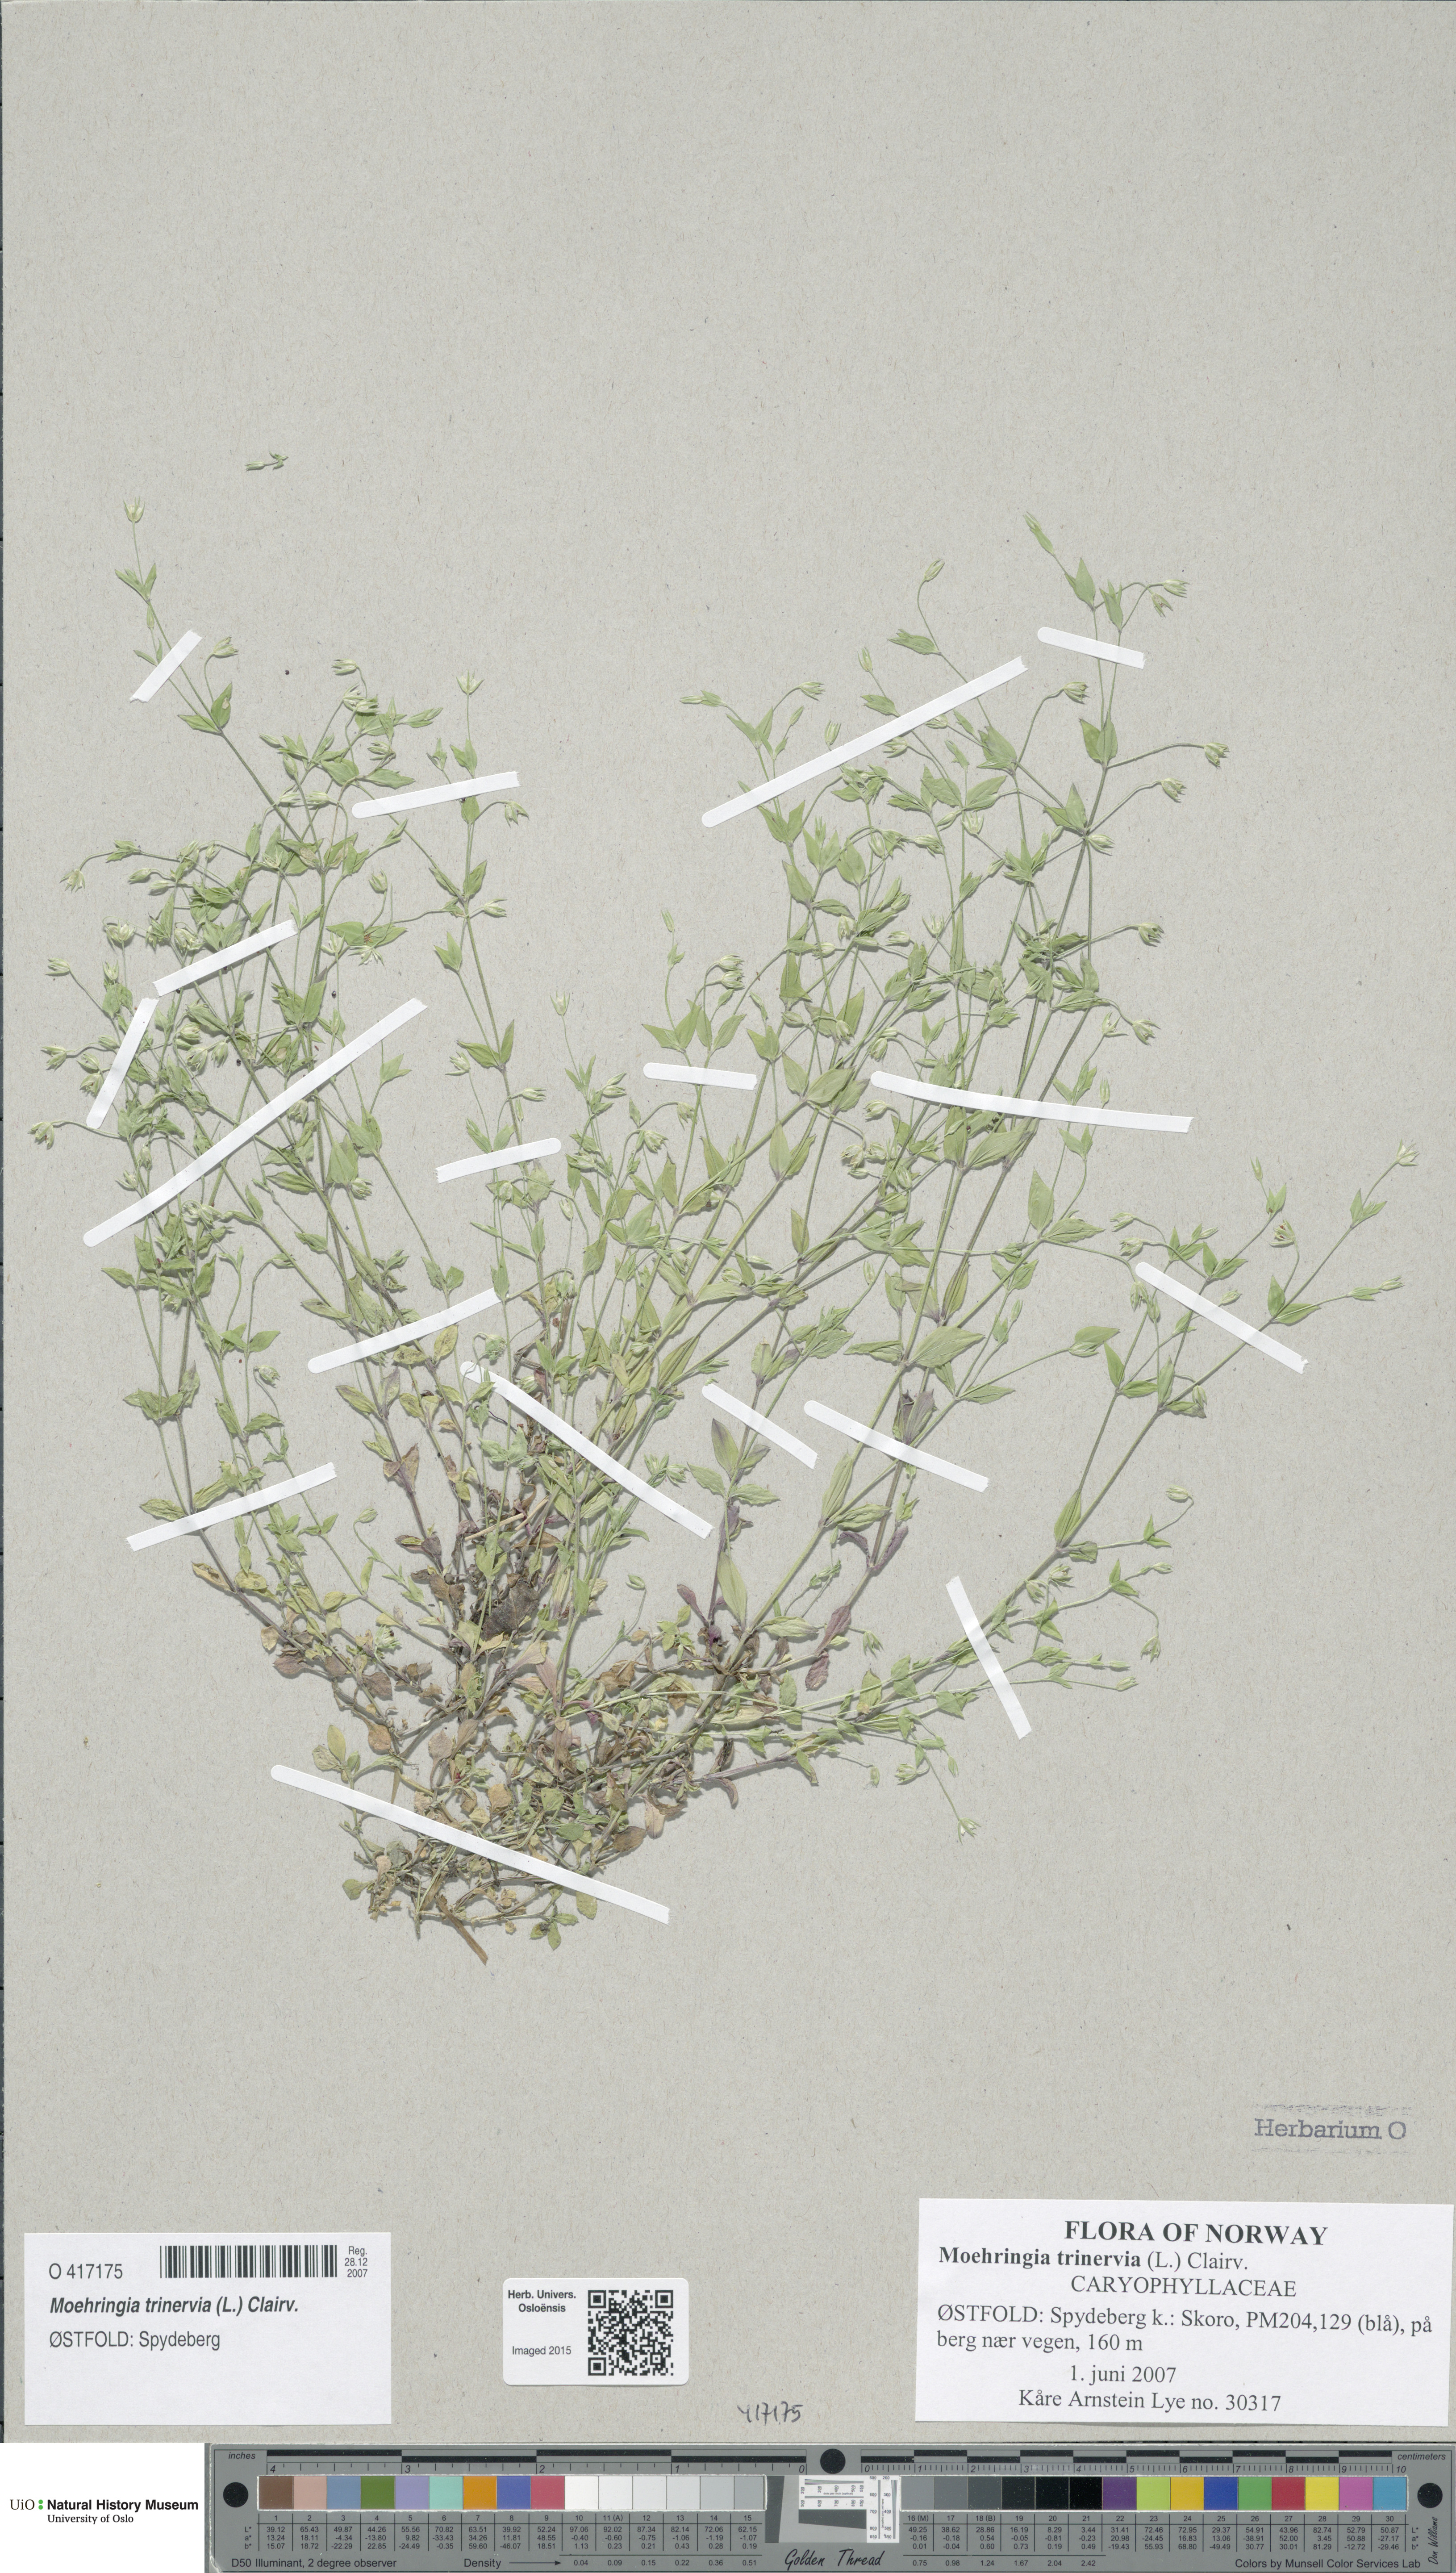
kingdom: Plantae
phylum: Tracheophyta
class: Magnoliopsida
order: Caryophyllales
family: Caryophyllaceae
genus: Moehringia
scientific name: Moehringia trinervia
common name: Three-nerved sandwort
